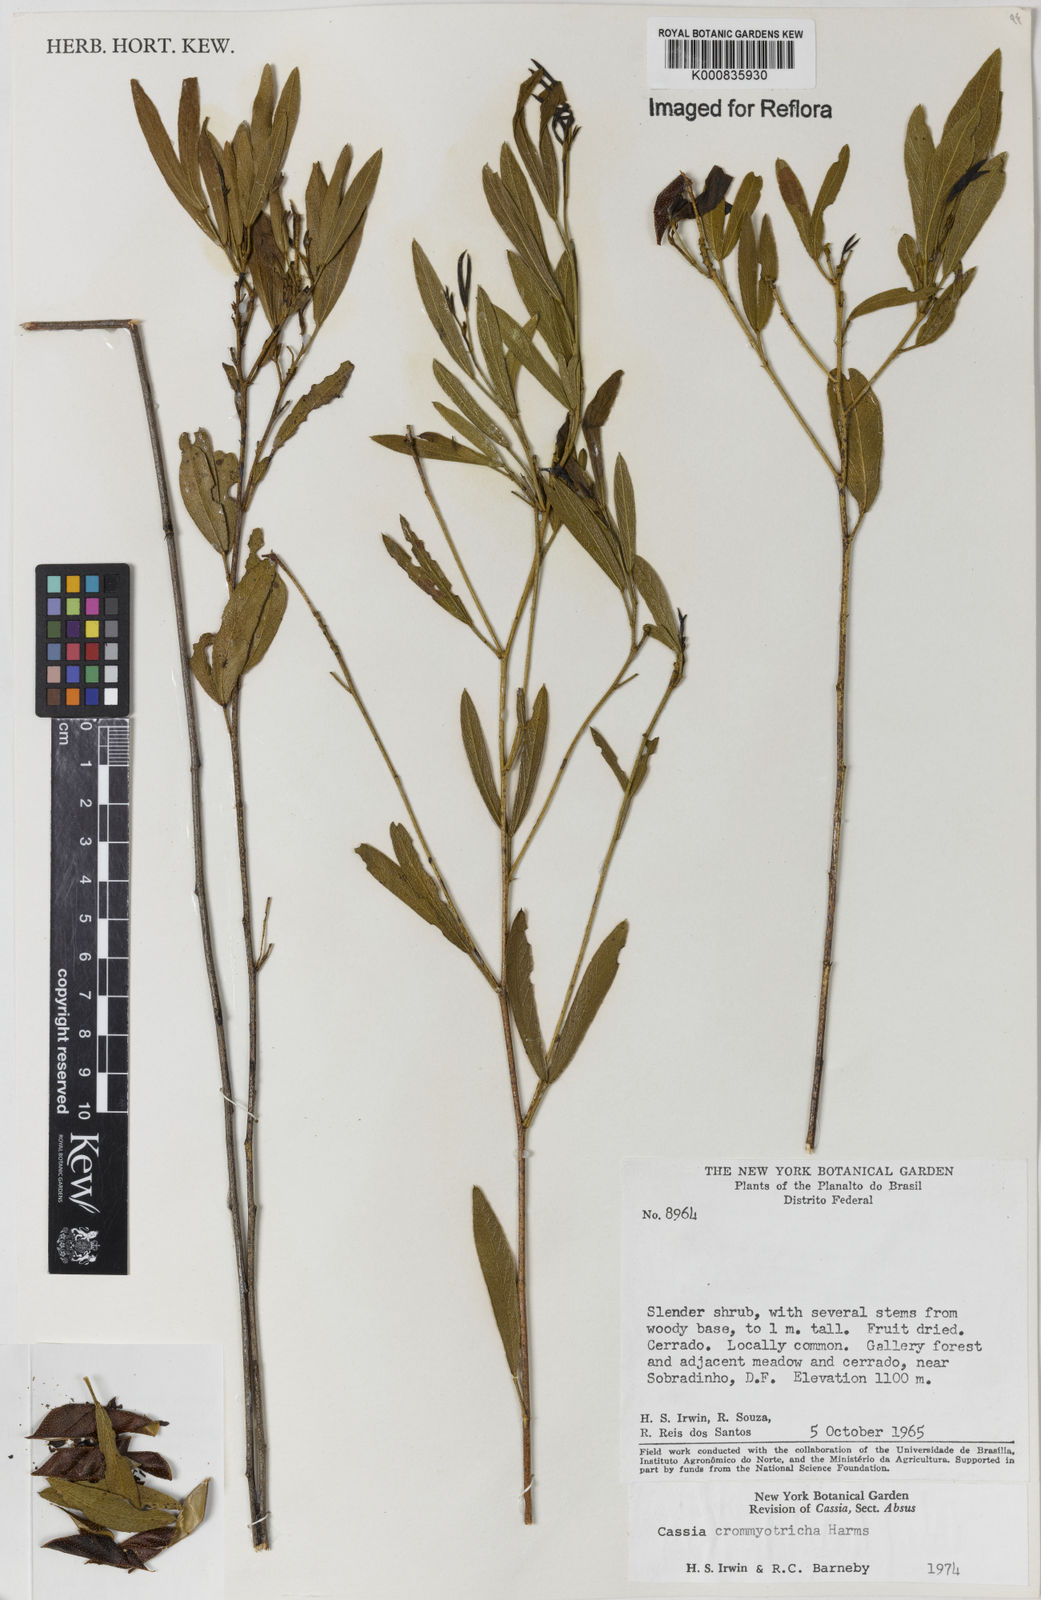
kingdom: Plantae
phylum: Tracheophyta
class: Magnoliopsida
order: Fabales
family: Fabaceae
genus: Chamaecrista
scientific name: Chamaecrista crommyotricha
